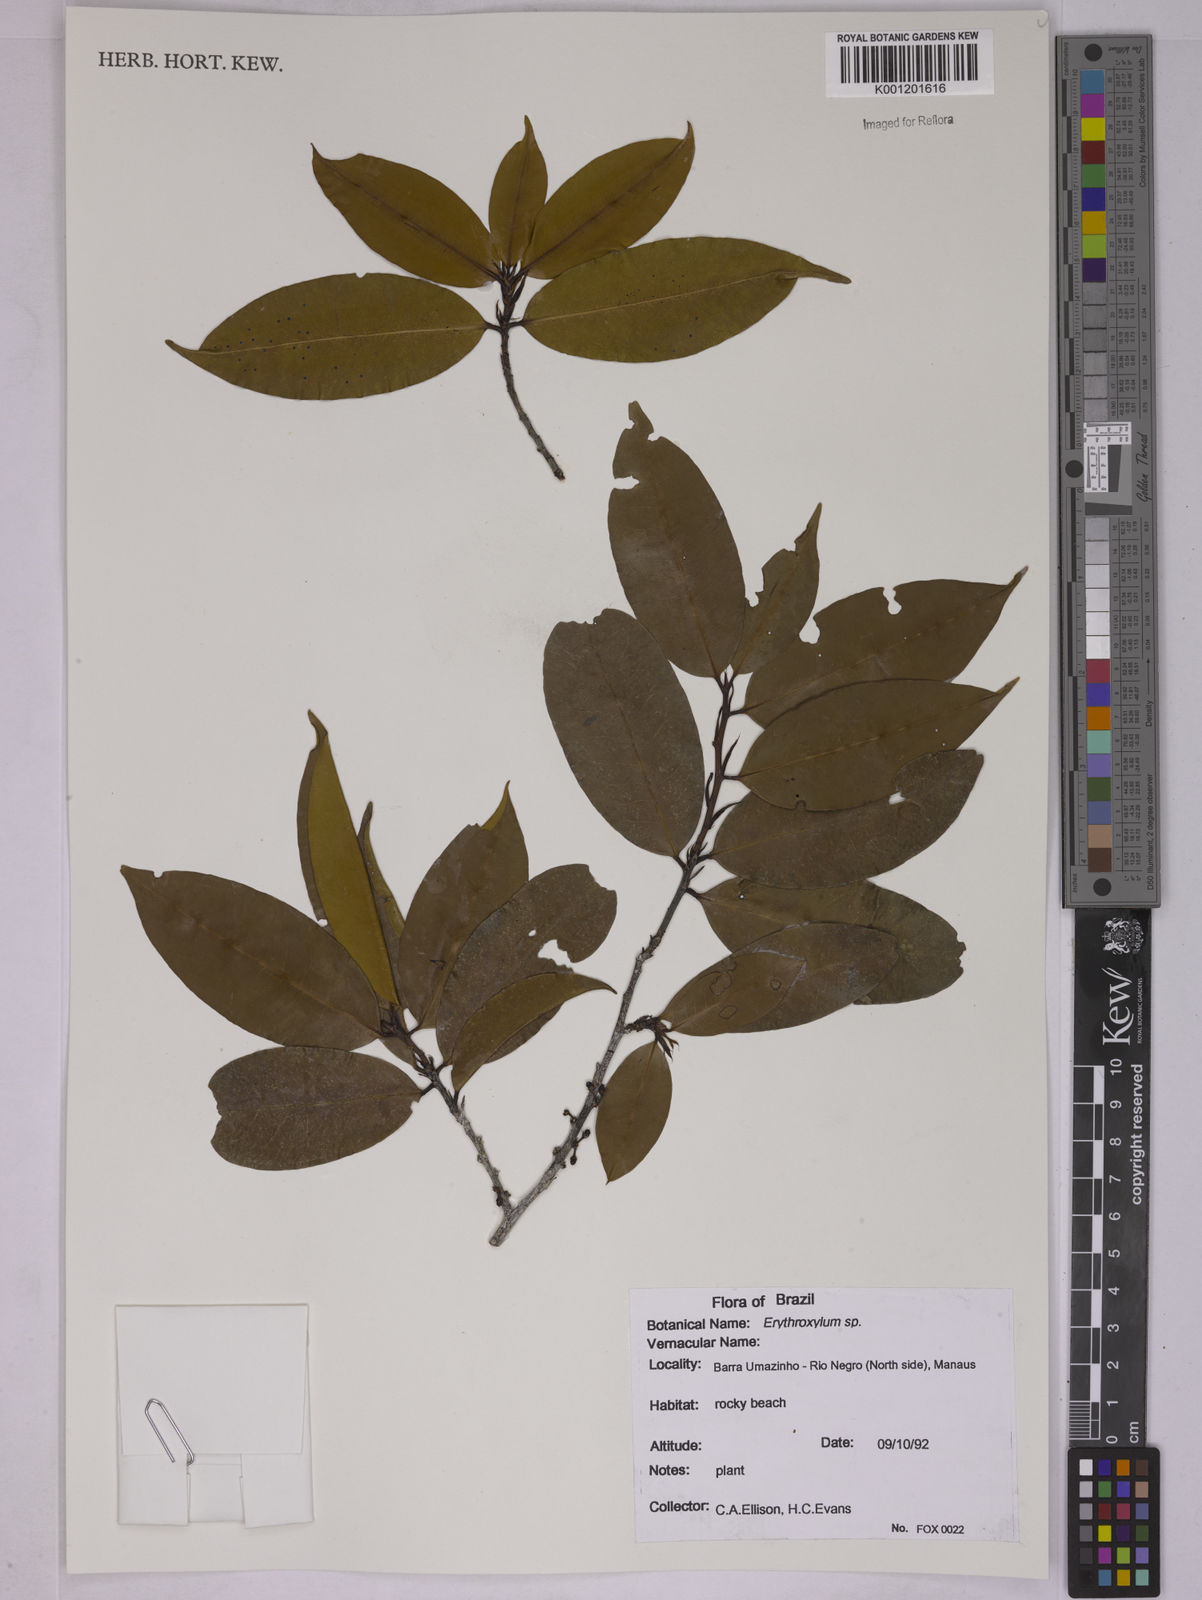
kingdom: Plantae
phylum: Tracheophyta
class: Magnoliopsida
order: Malpighiales
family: Erythroxylaceae
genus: Erythroxylum
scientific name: Erythroxylum
